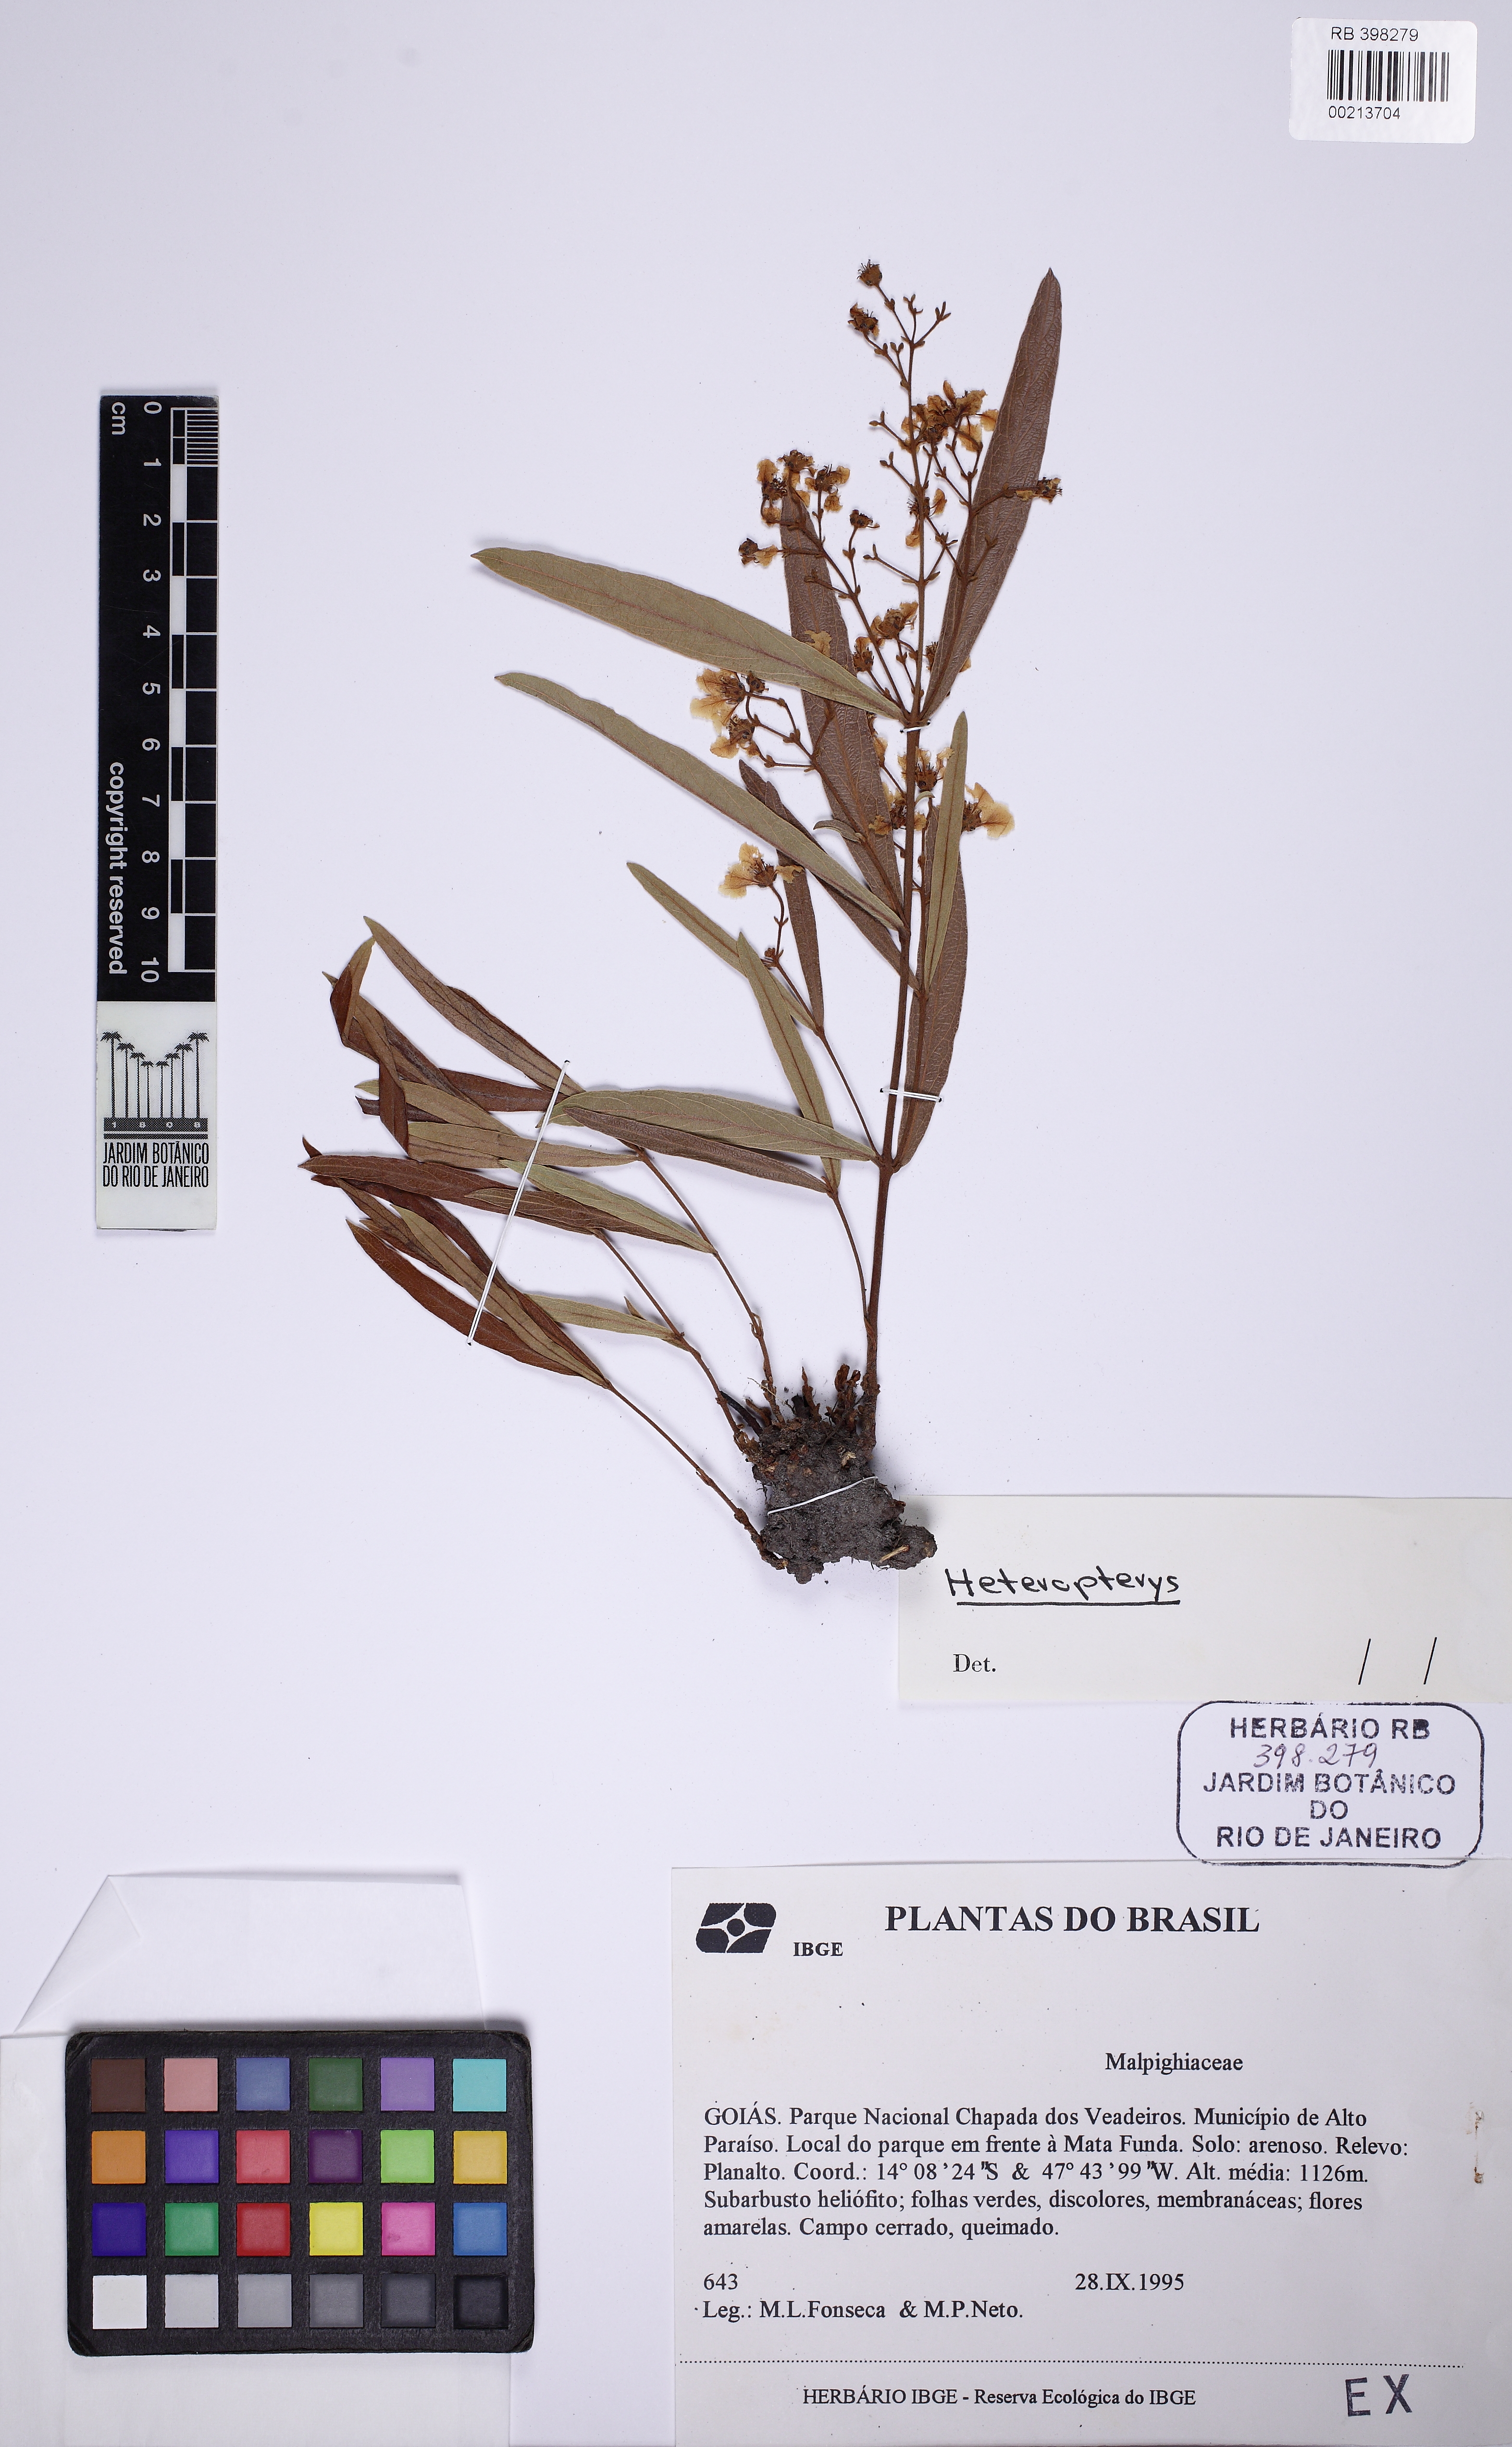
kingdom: Plantae
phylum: Tracheophyta
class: Magnoliopsida
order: Malpighiales
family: Malpighiaceae
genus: Heteropterys
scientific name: Heteropterys rosmarinifolia
